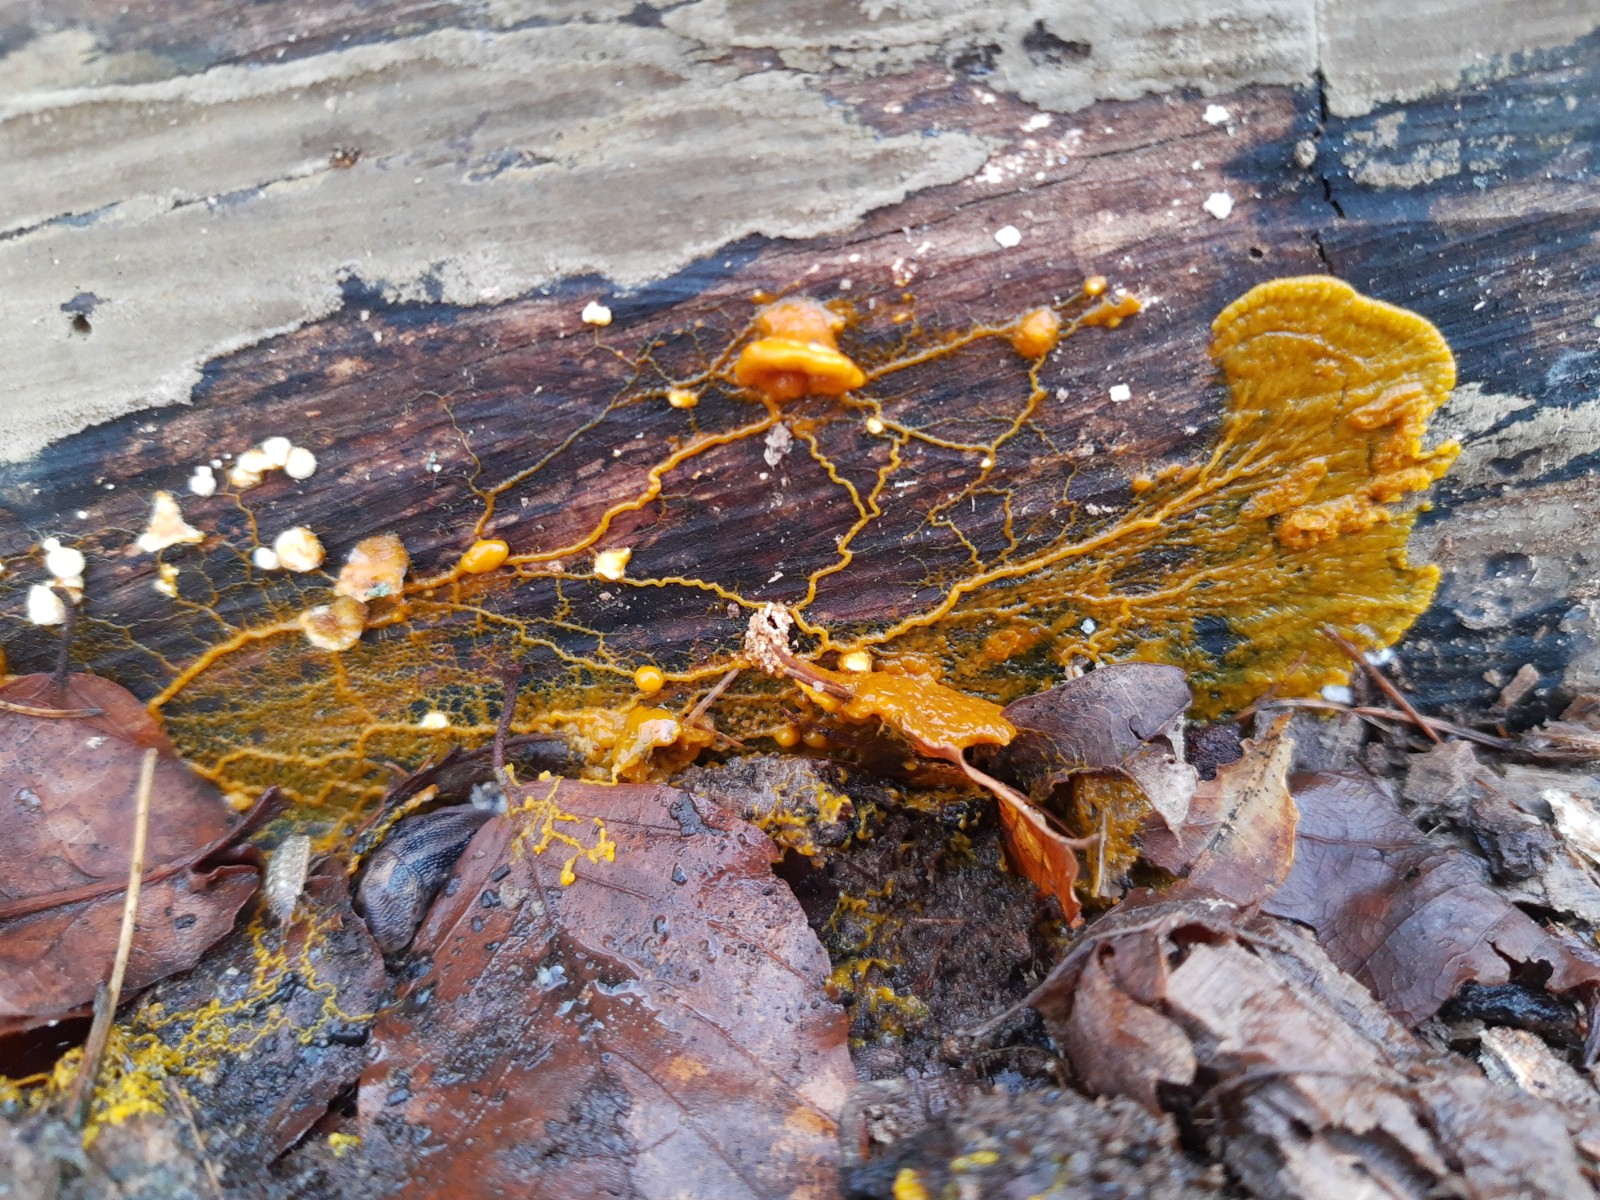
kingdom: Protozoa
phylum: Mycetozoa
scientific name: Mycetozoa
